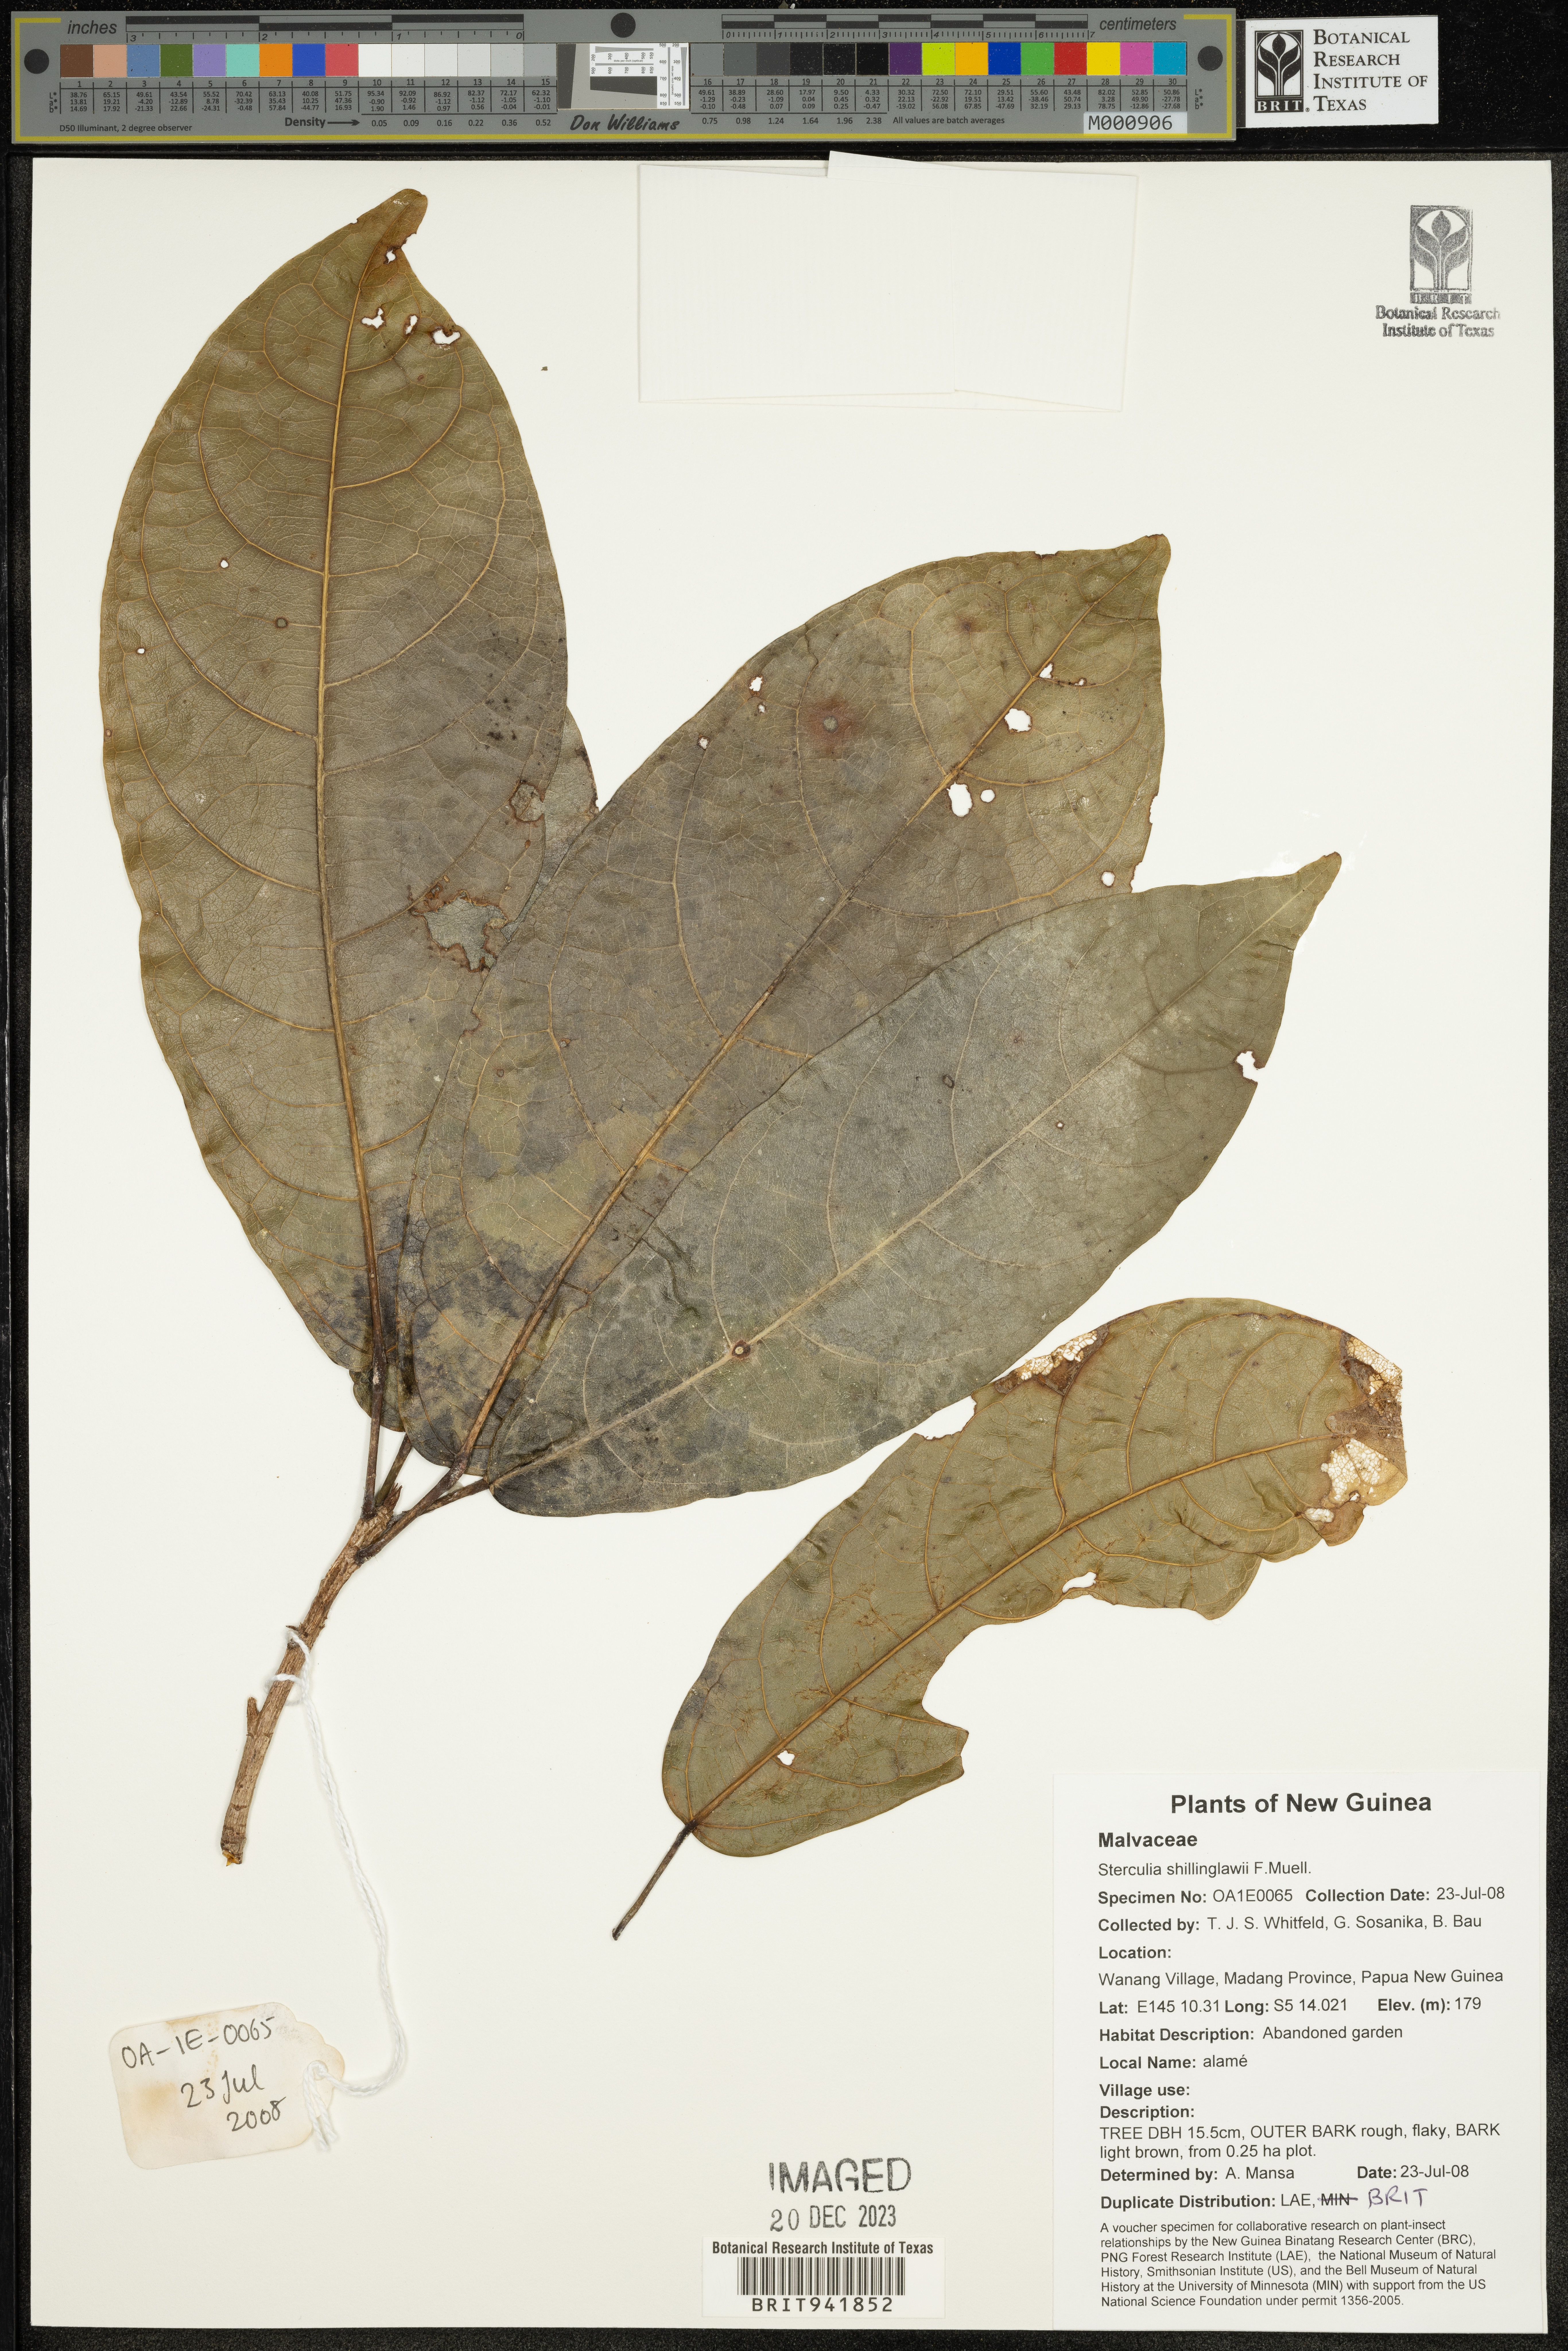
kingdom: Plantae
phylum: Tracheophyta
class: Magnoliopsida
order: Malvales
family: Malvaceae
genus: Sterculia
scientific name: Sterculia
